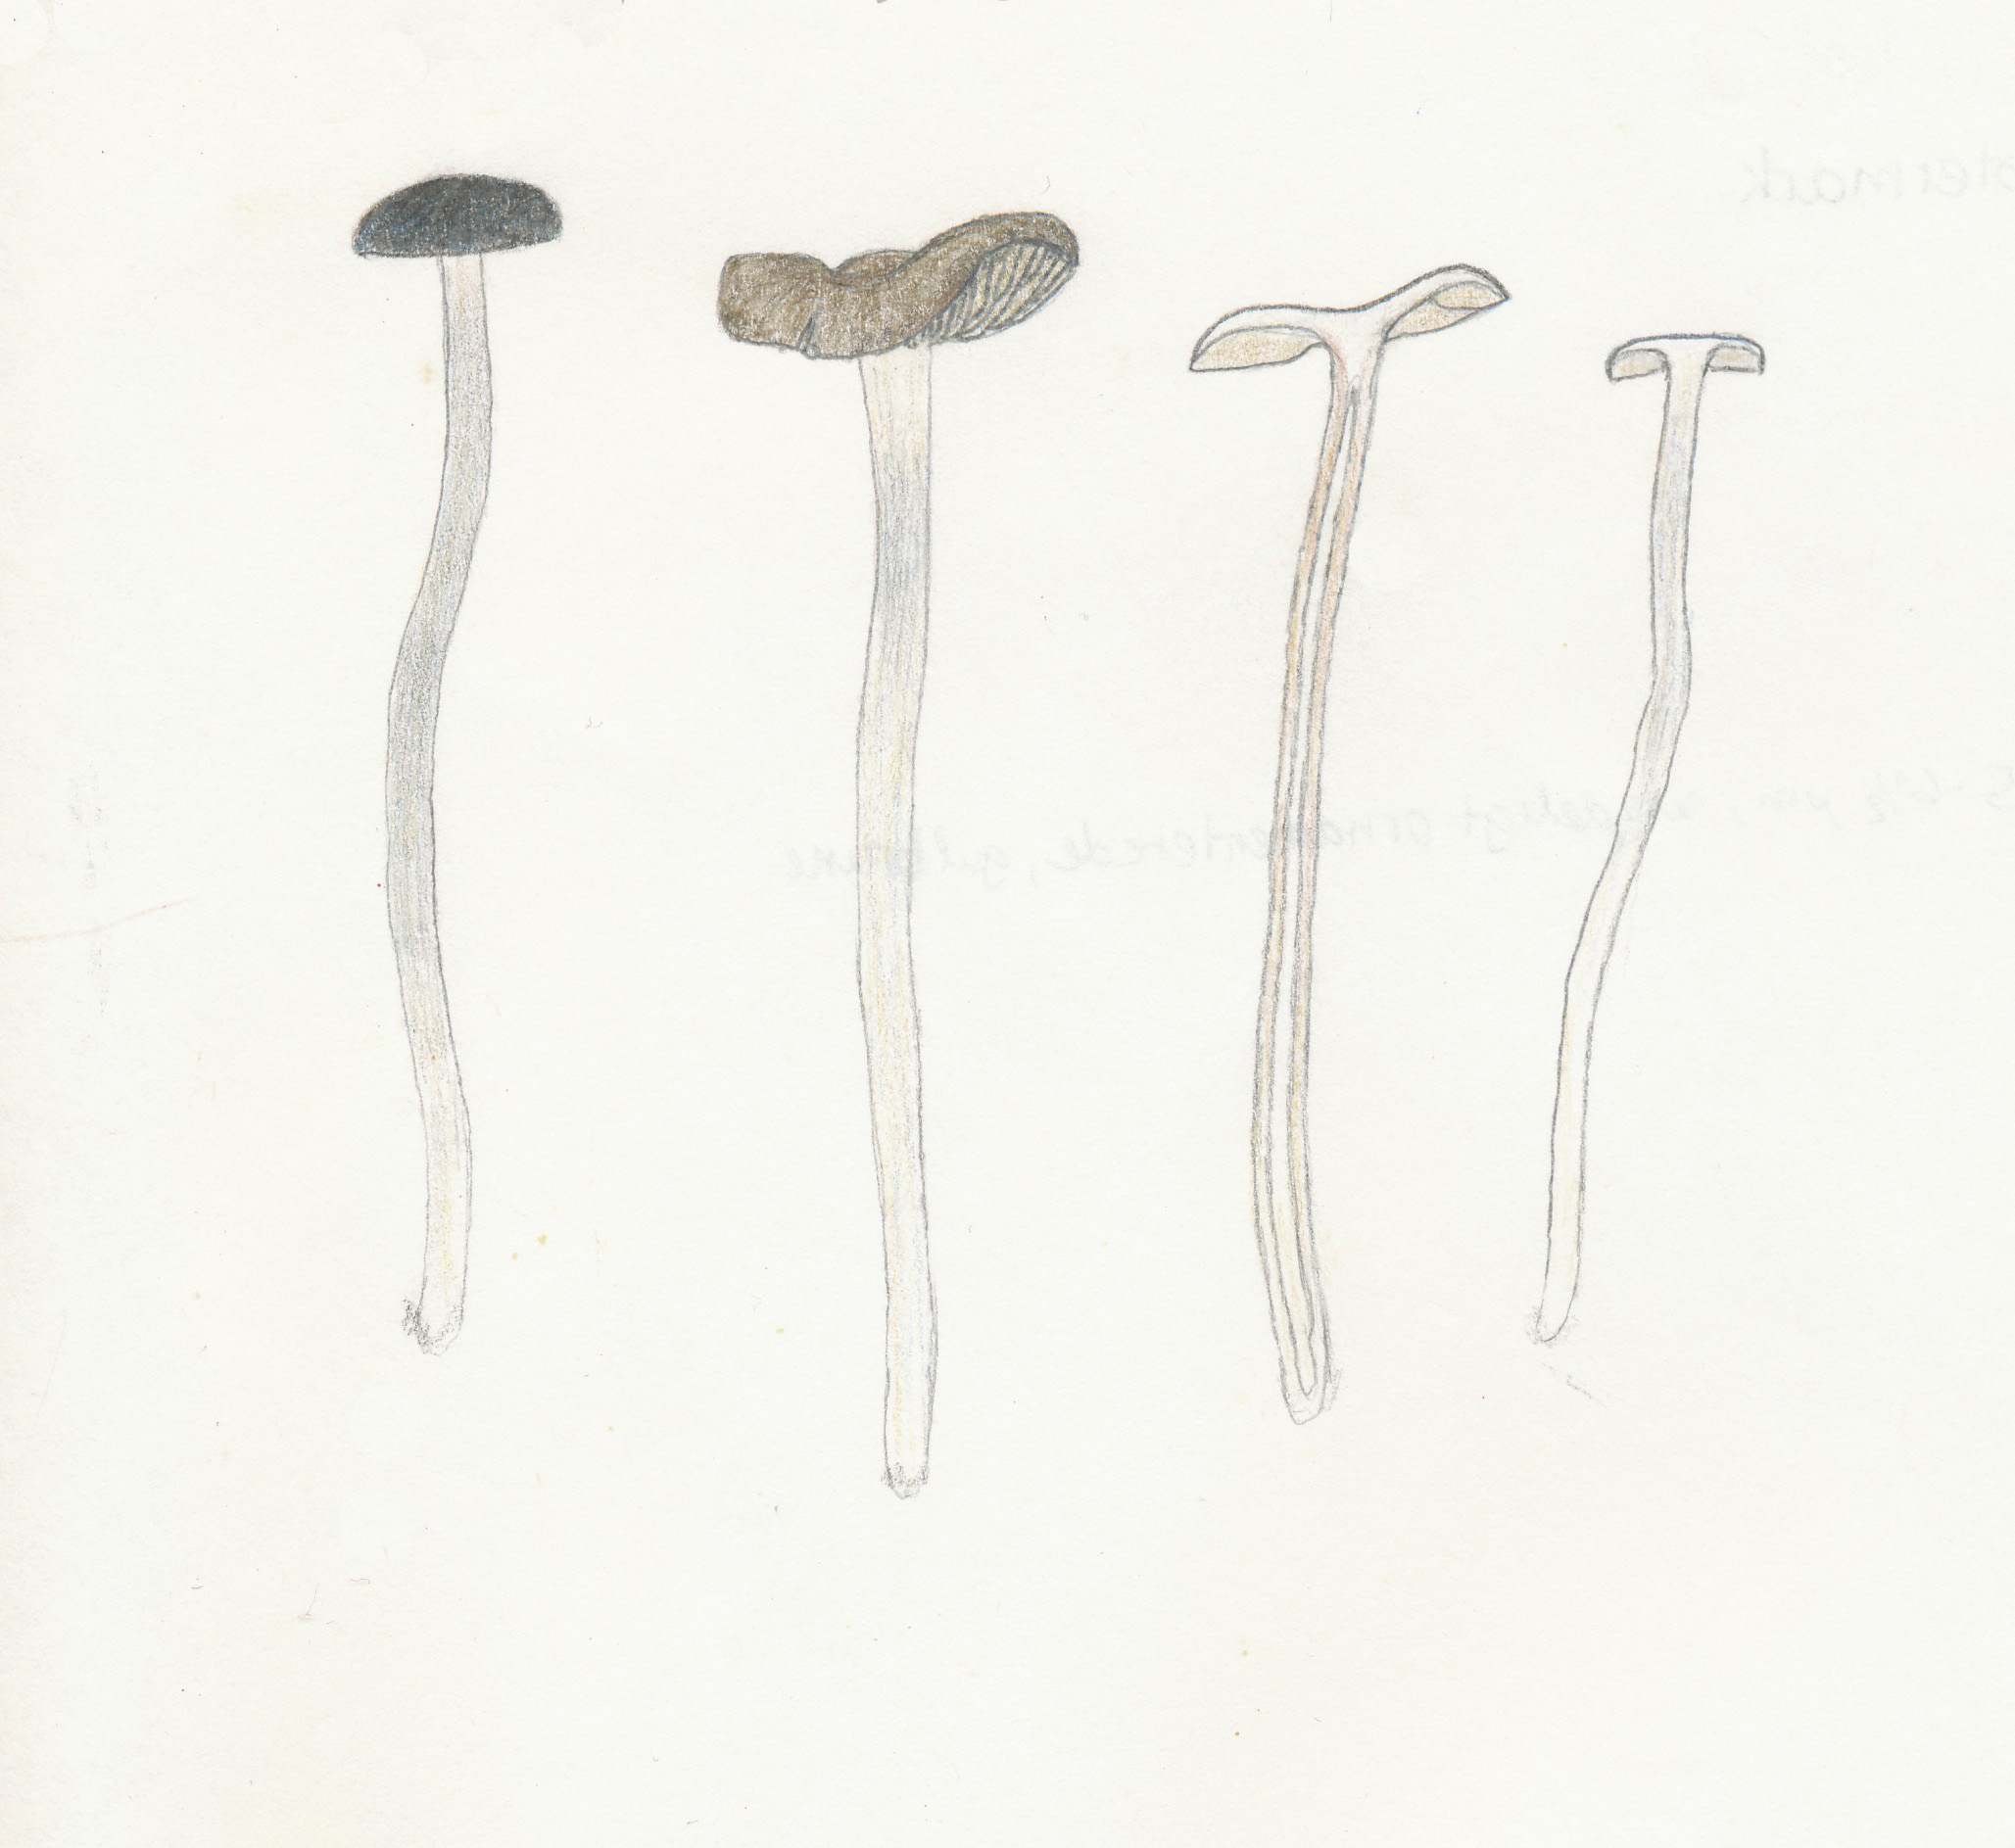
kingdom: Fungi
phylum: Basidiomycota
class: Agaricomycetes
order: Agaricales
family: Entolomataceae
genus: Entoloma
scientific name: Entoloma caeruleopolitum
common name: blåpoleret rødblad
